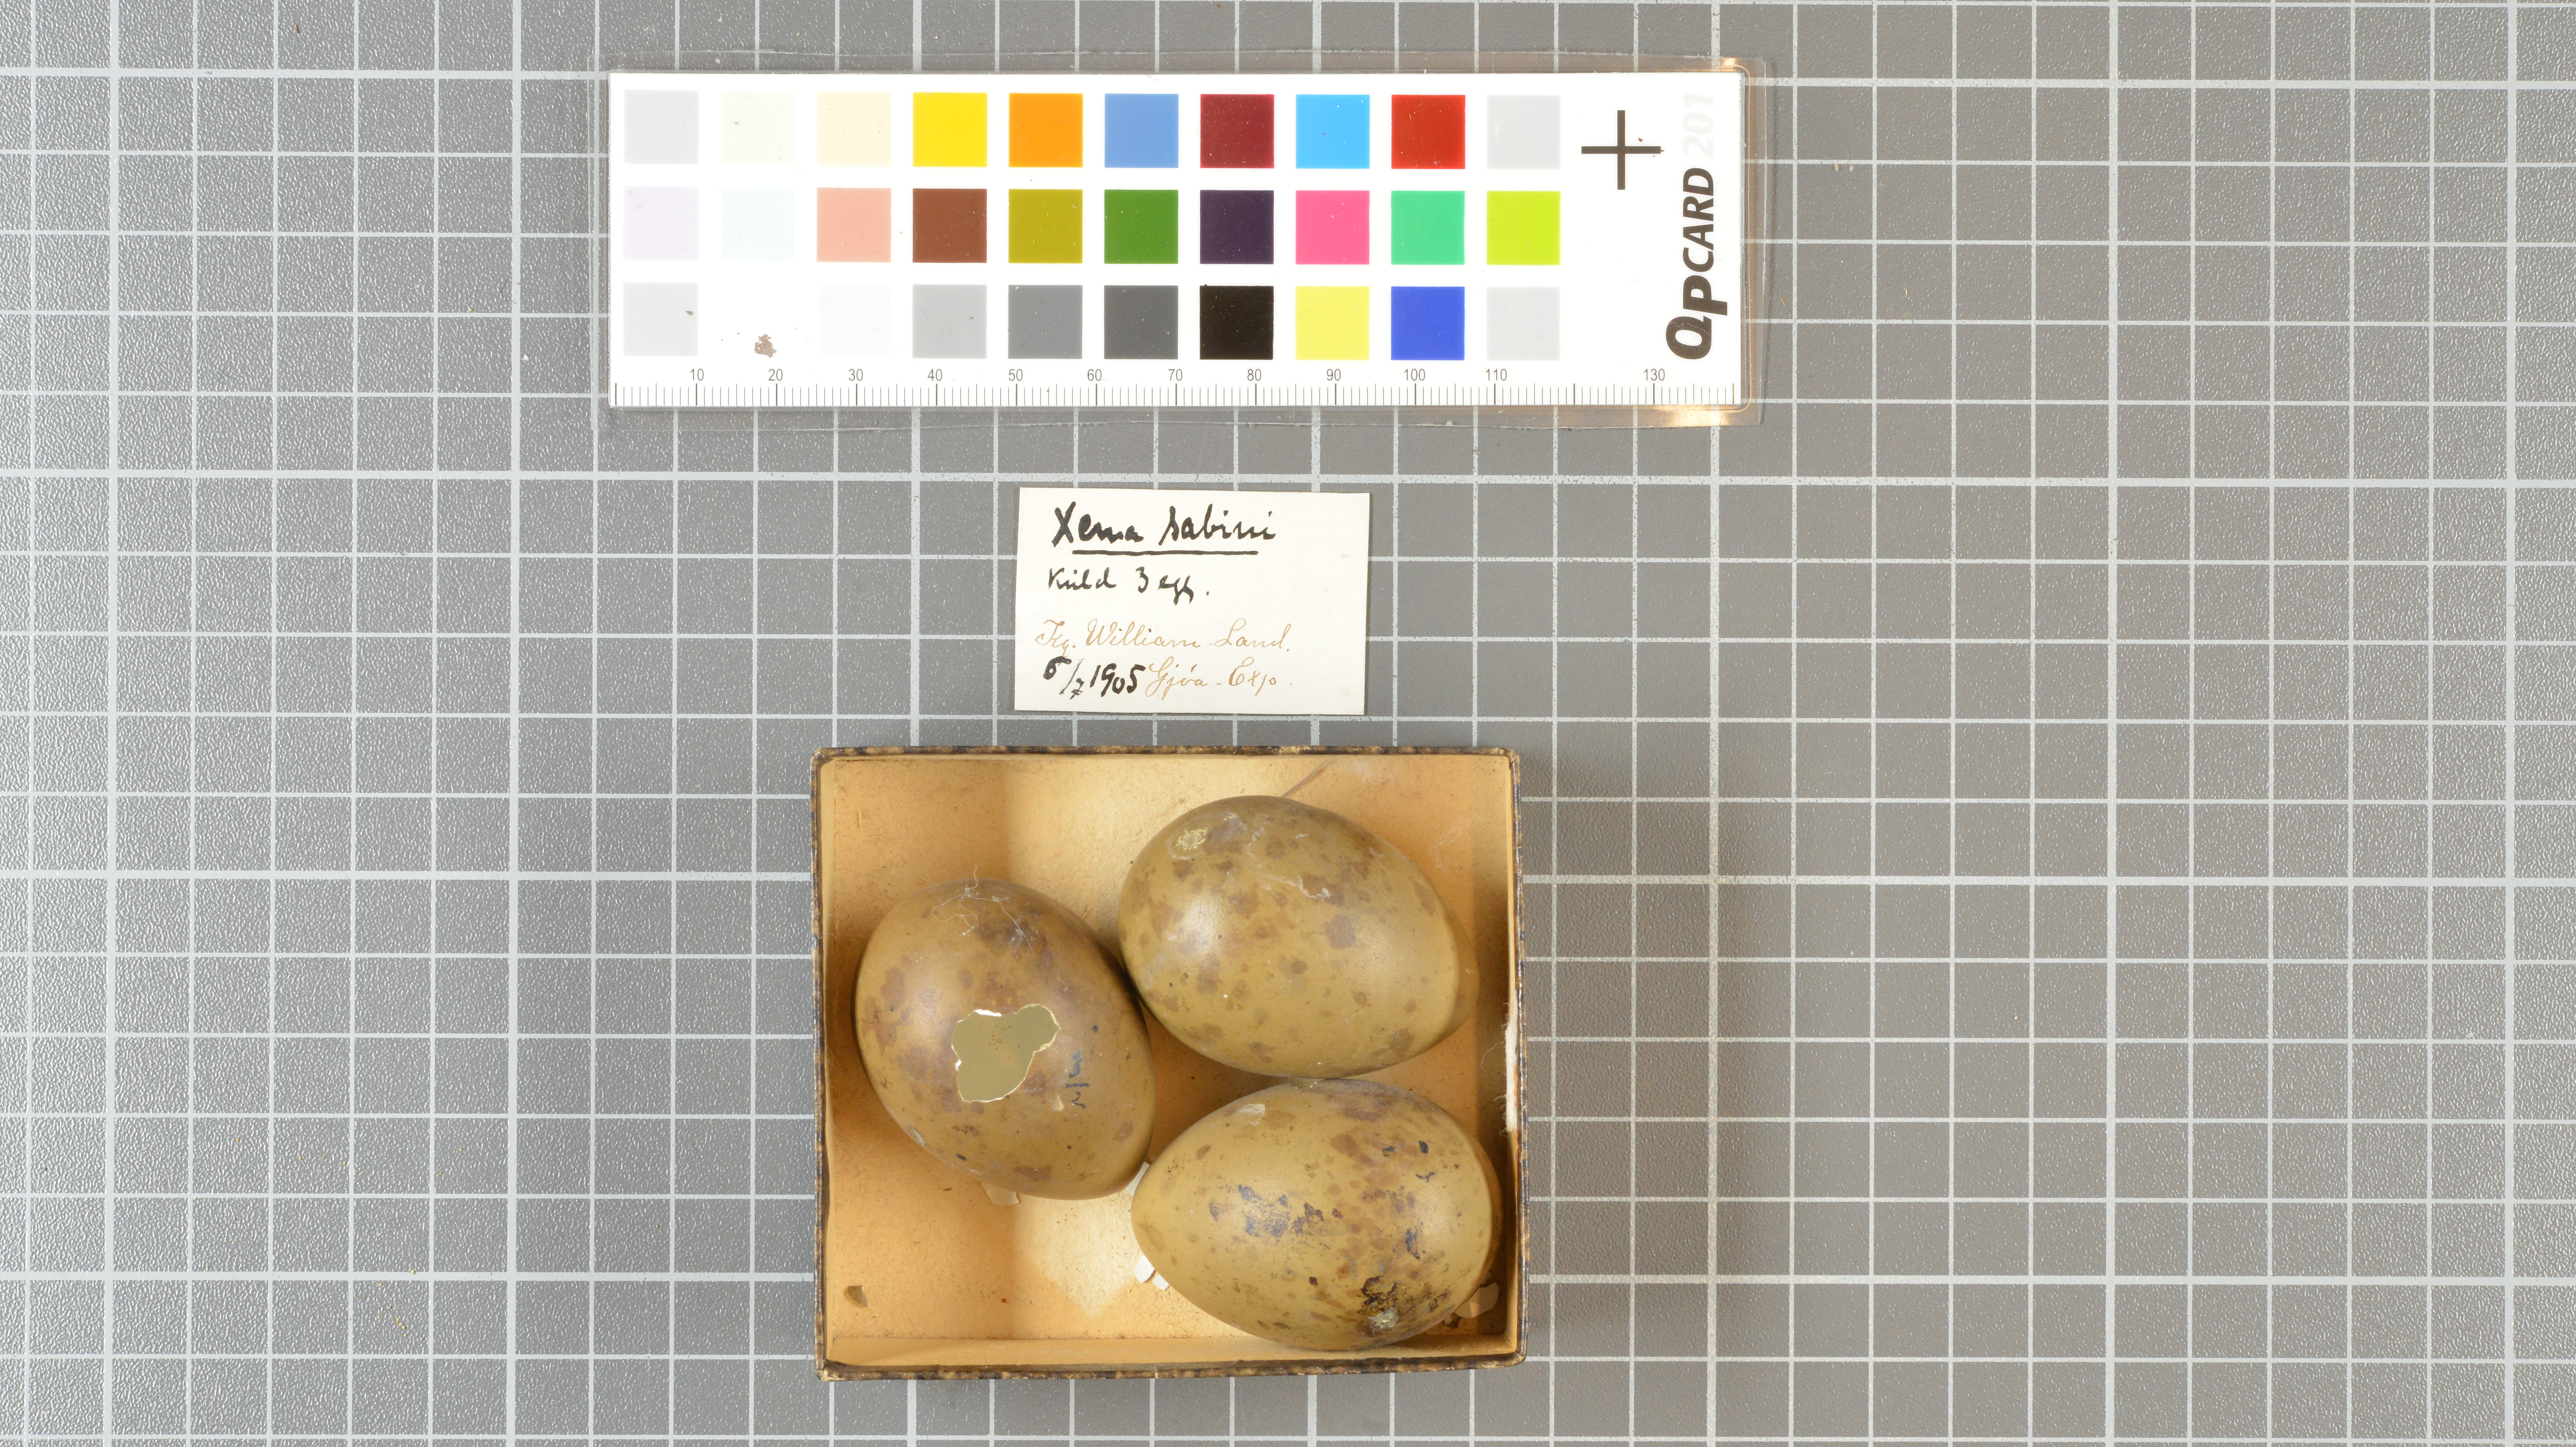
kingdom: Animalia
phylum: Chordata
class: Aves
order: Charadriiformes
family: Laridae
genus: Xema
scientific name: Xema sabini
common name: Sabine's gull
